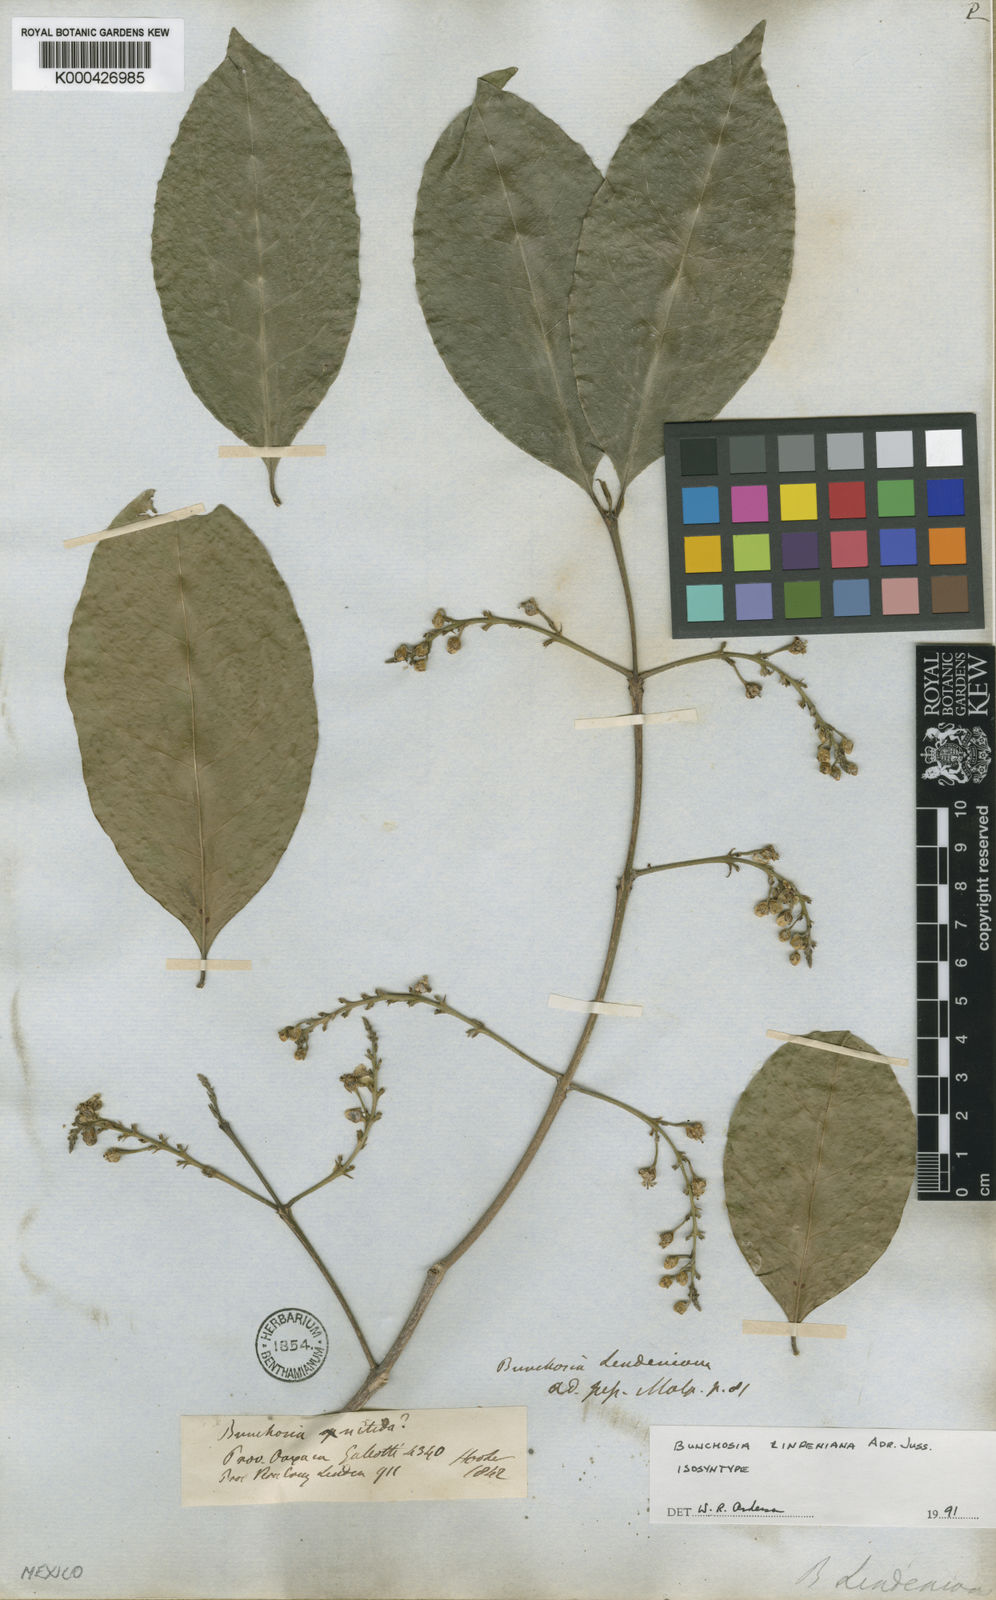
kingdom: Plantae
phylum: Tracheophyta
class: Magnoliopsida
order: Malpighiales
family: Malpighiaceae
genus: Bunchosia
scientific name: Bunchosia lindeniana
